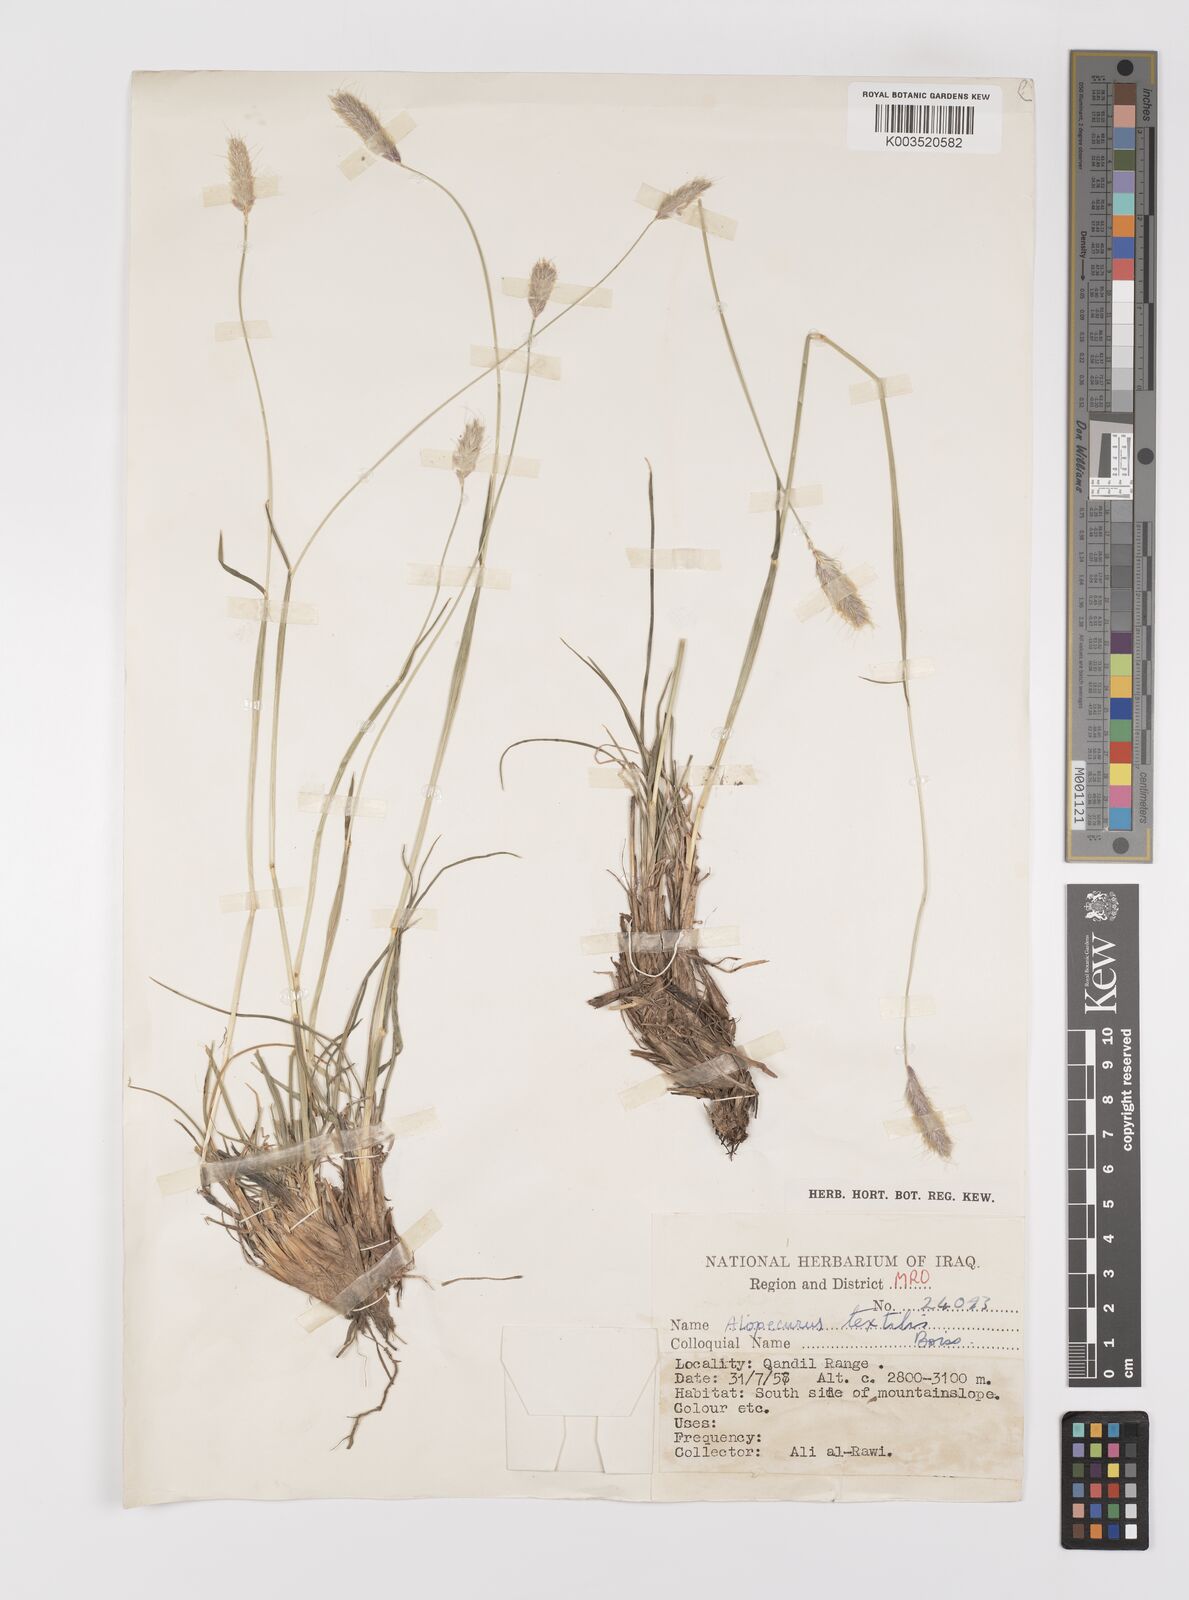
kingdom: Plantae
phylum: Tracheophyta
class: Liliopsida
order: Poales
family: Poaceae
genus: Alopecurus
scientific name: Alopecurus textilis
